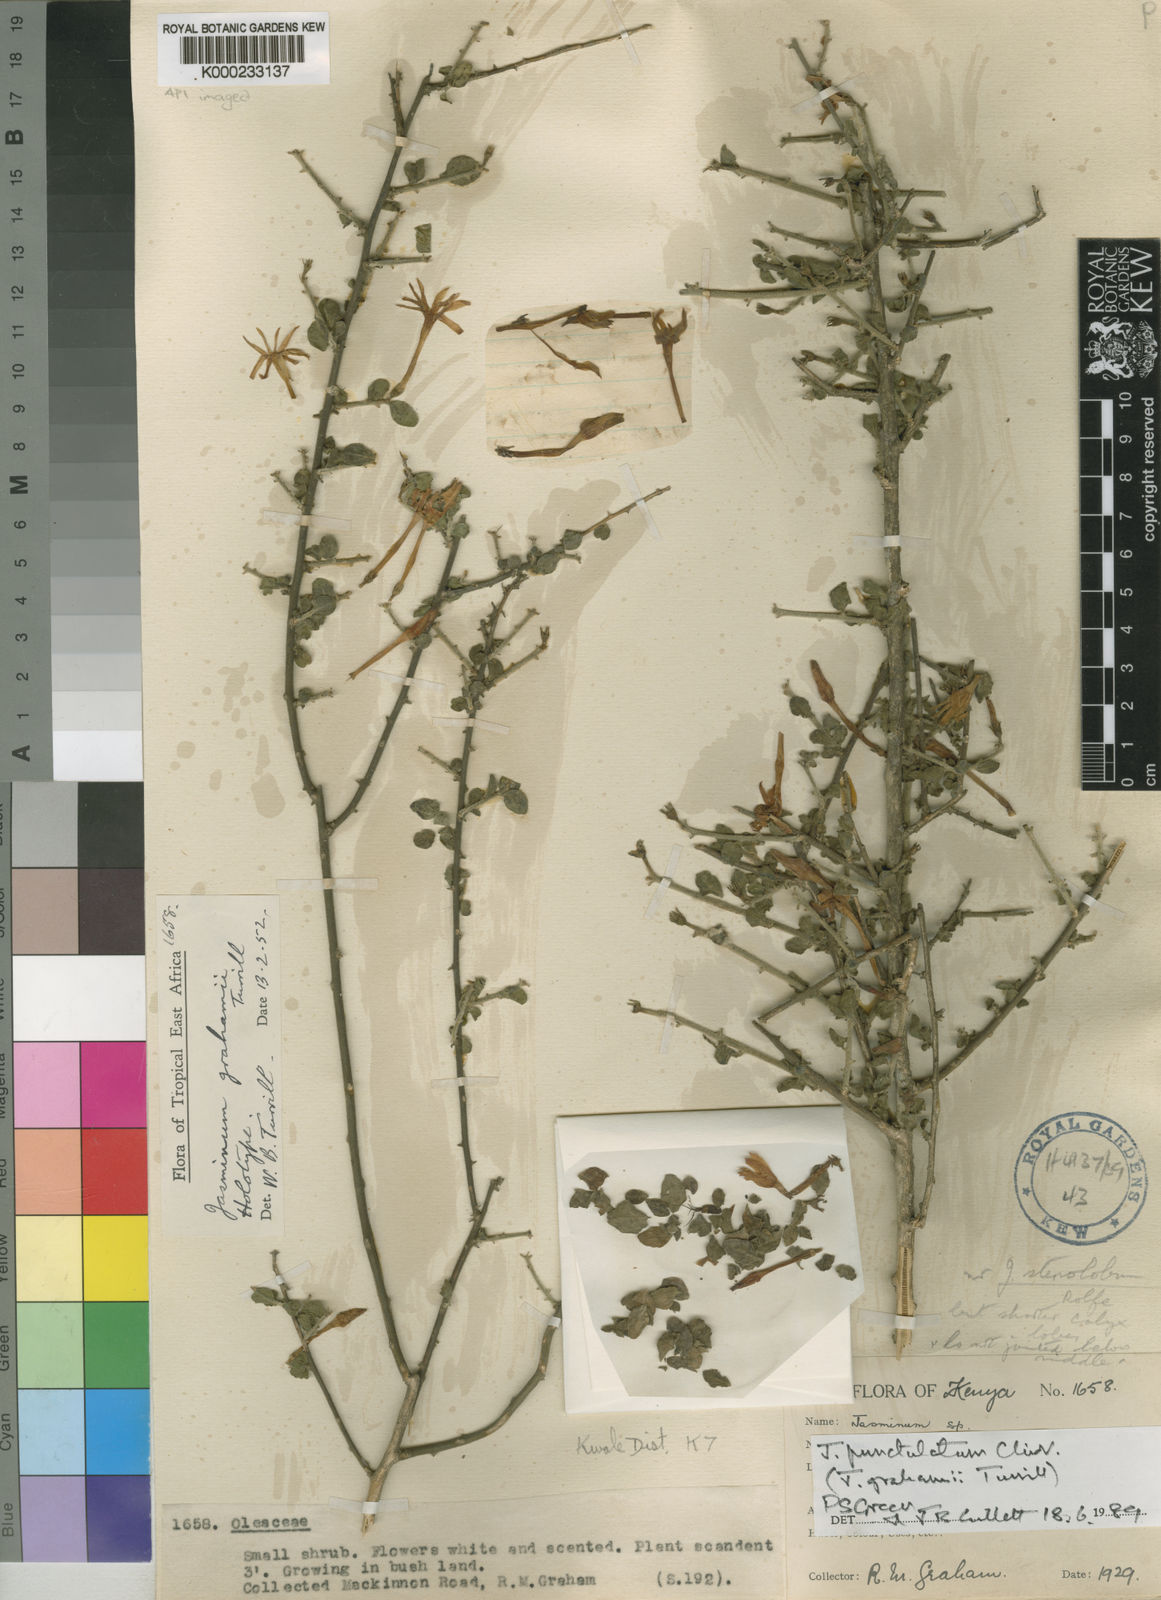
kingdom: Plantae
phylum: Tracheophyta
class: Magnoliopsida
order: Lamiales
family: Oleaceae
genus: Jasminum
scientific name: Jasminum punctulatum
